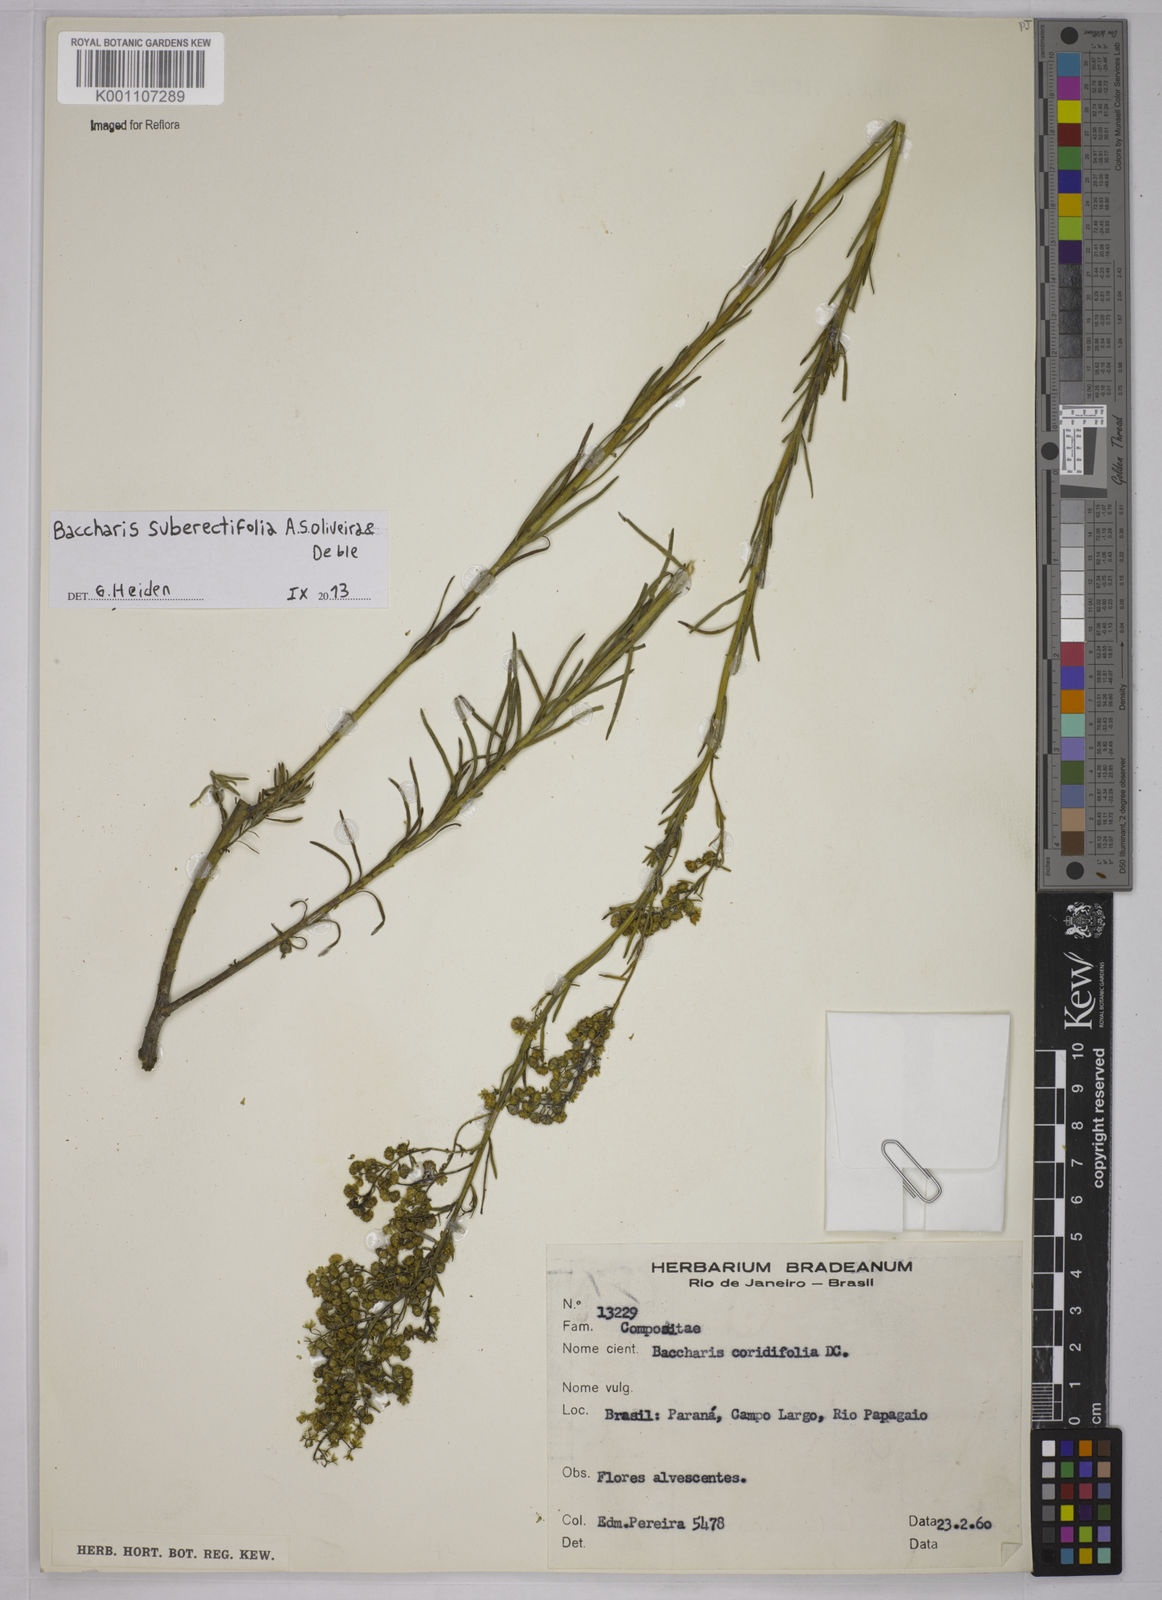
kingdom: Plantae
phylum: Tracheophyta
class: Magnoliopsida
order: Asterales
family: Asteraceae
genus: Baccharis
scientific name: Baccharis suberectifolia
